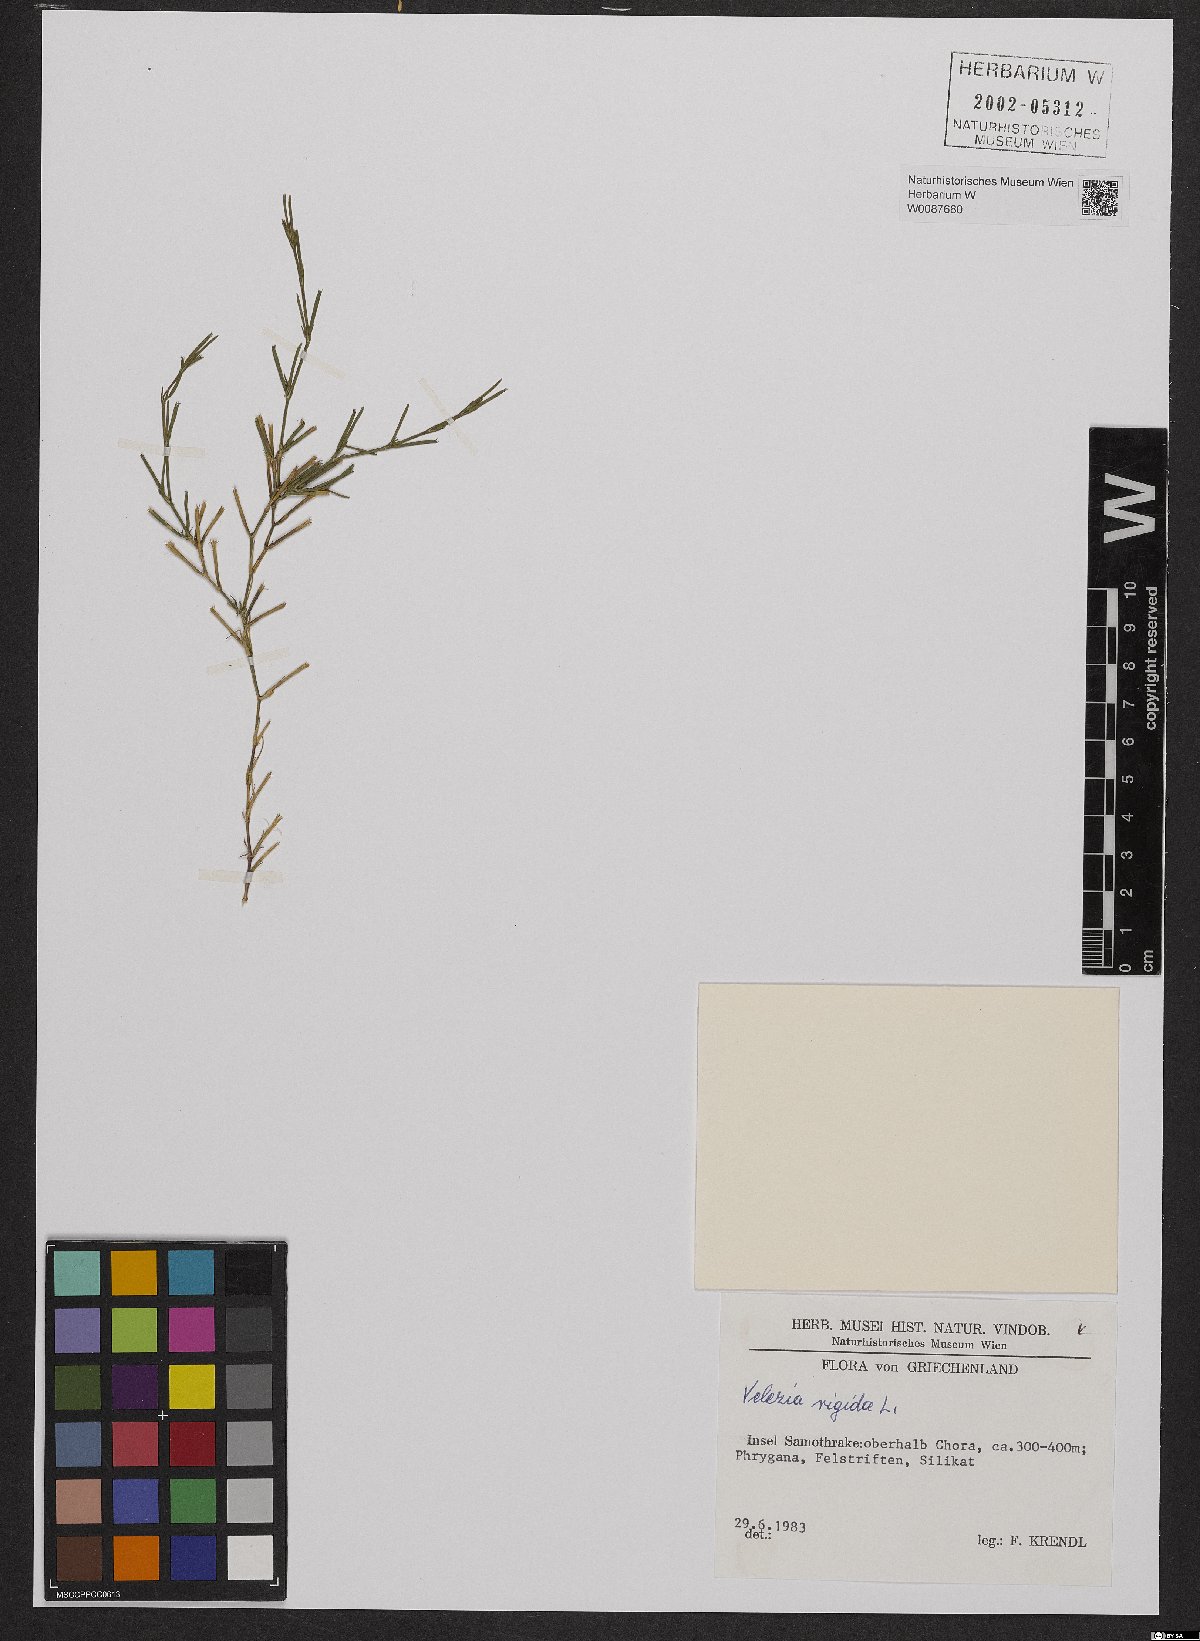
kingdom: Plantae
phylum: Tracheophyta
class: Magnoliopsida
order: Caryophyllales
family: Caryophyllaceae
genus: Dianthus
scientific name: Dianthus nudiflorus
